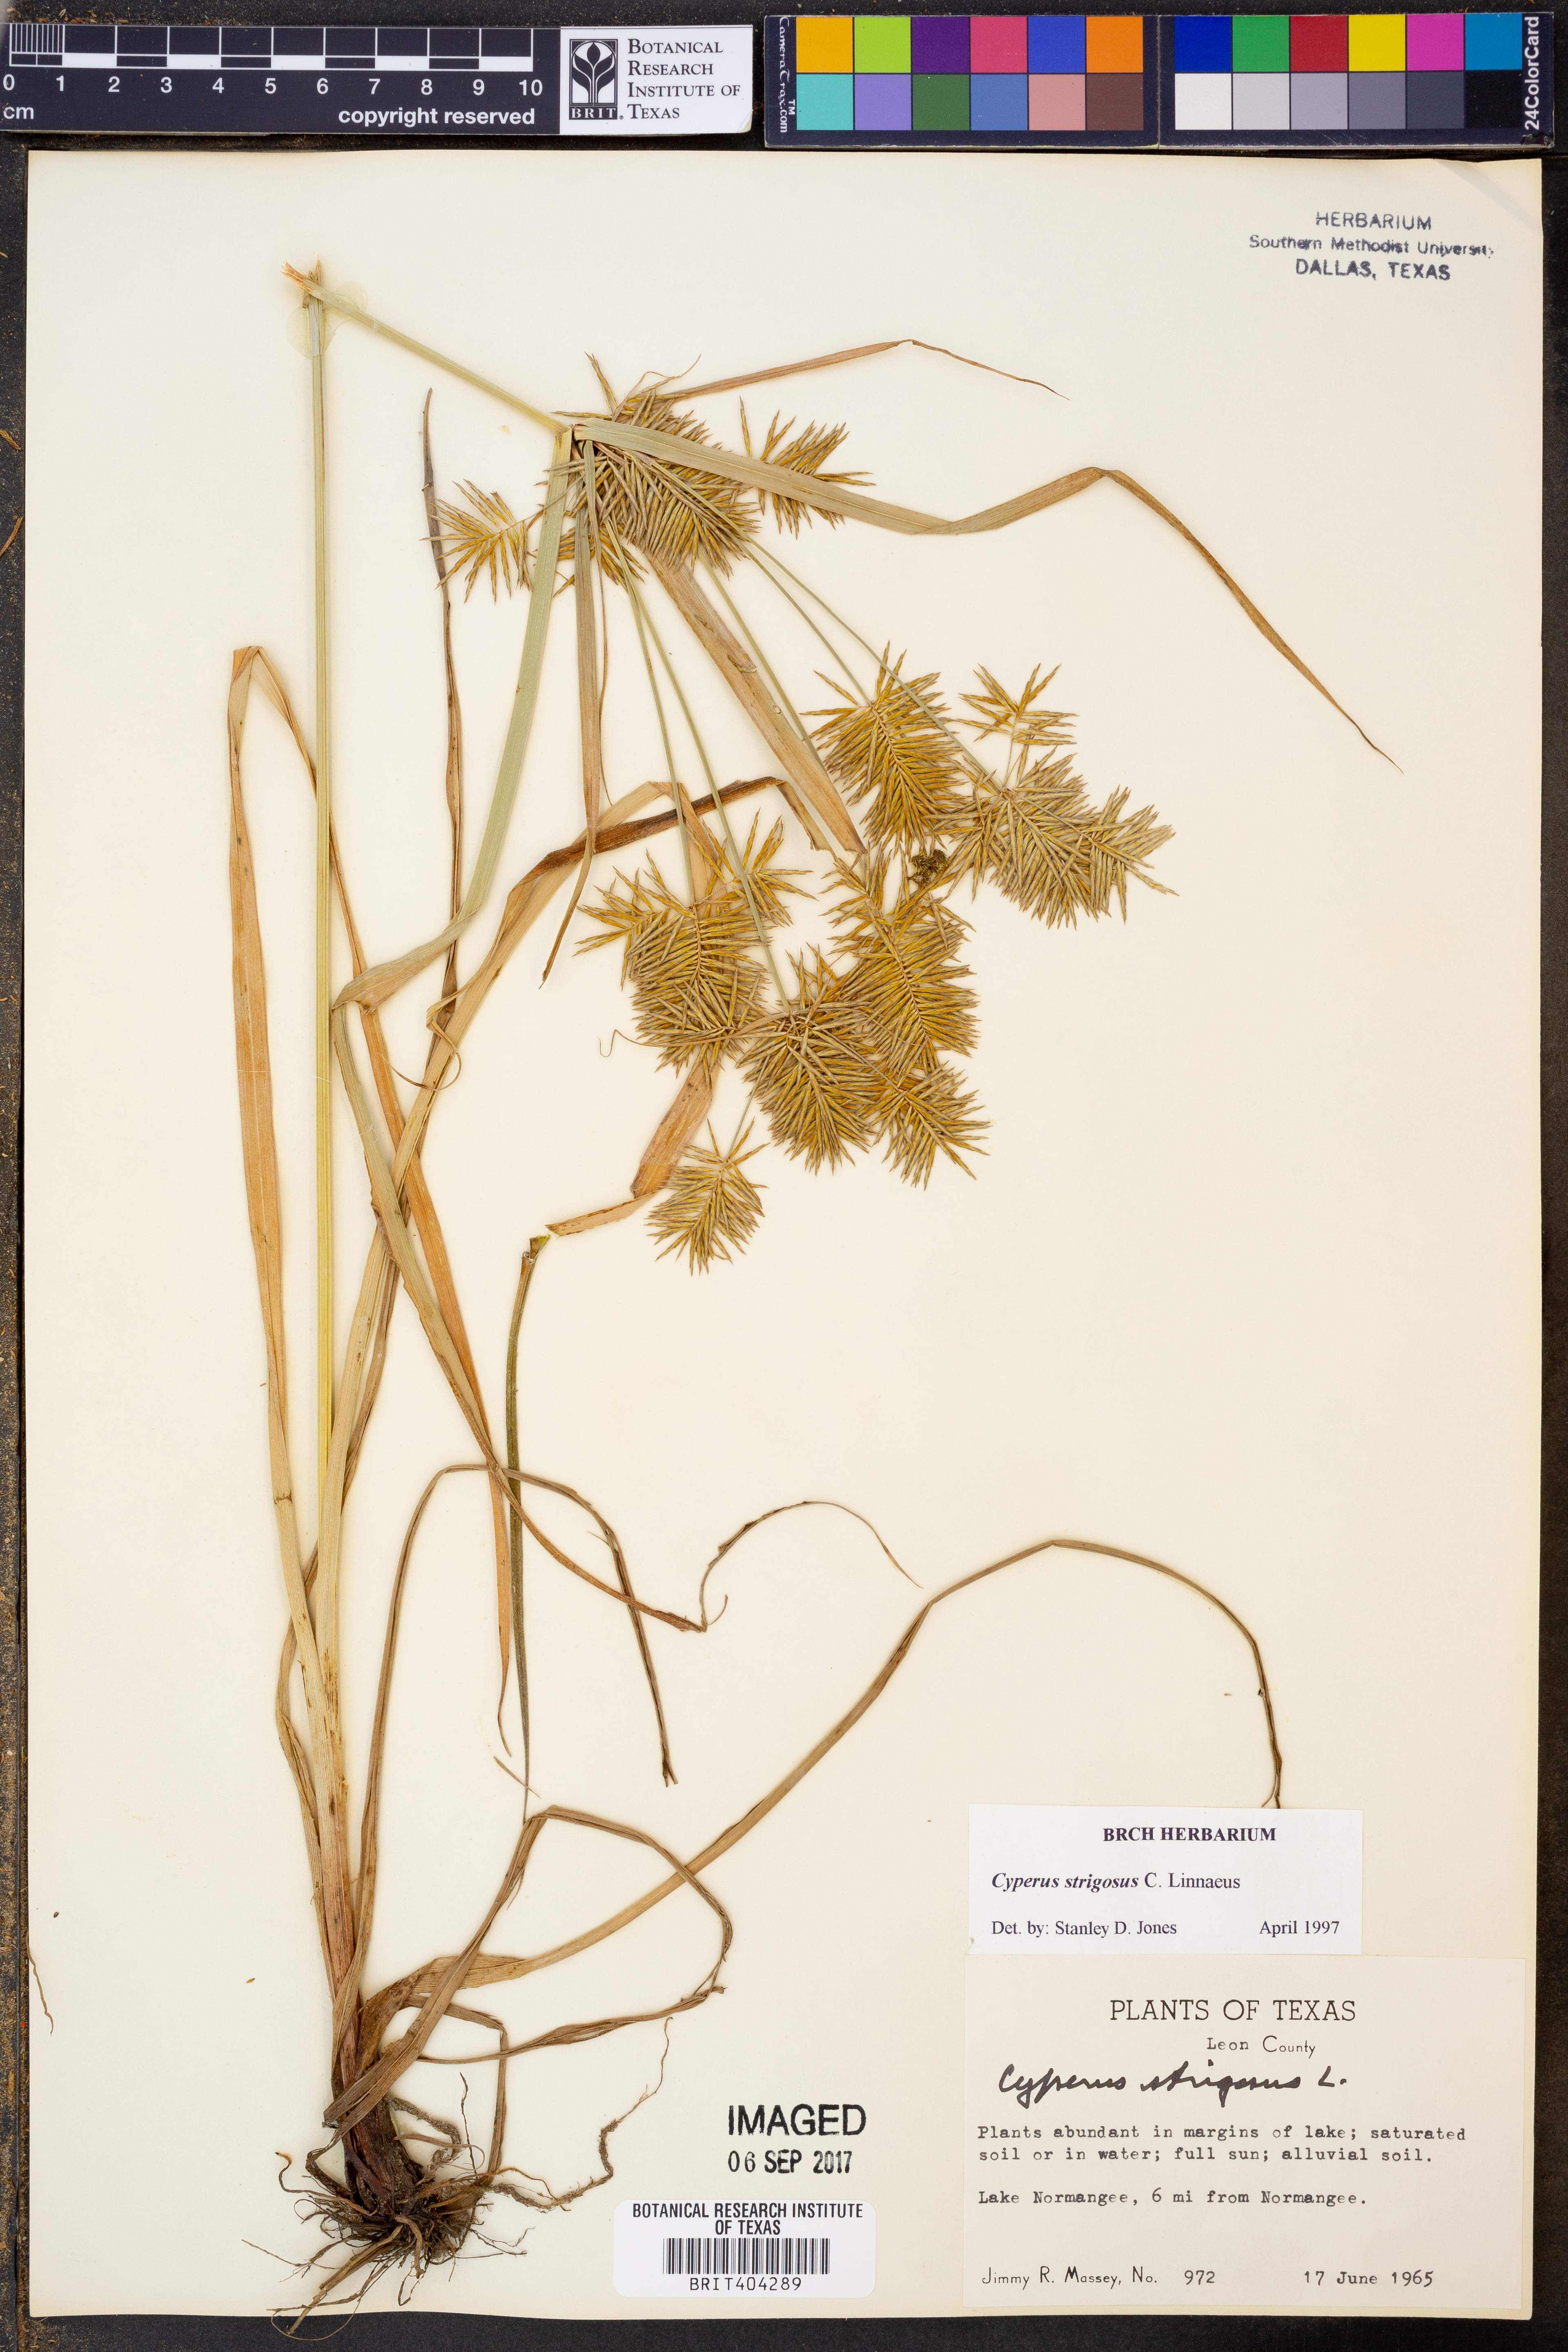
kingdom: Plantae
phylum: Tracheophyta
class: Liliopsida
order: Poales
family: Cyperaceae
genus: Cyperus
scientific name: Cyperus strigosus
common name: False nutsedge
